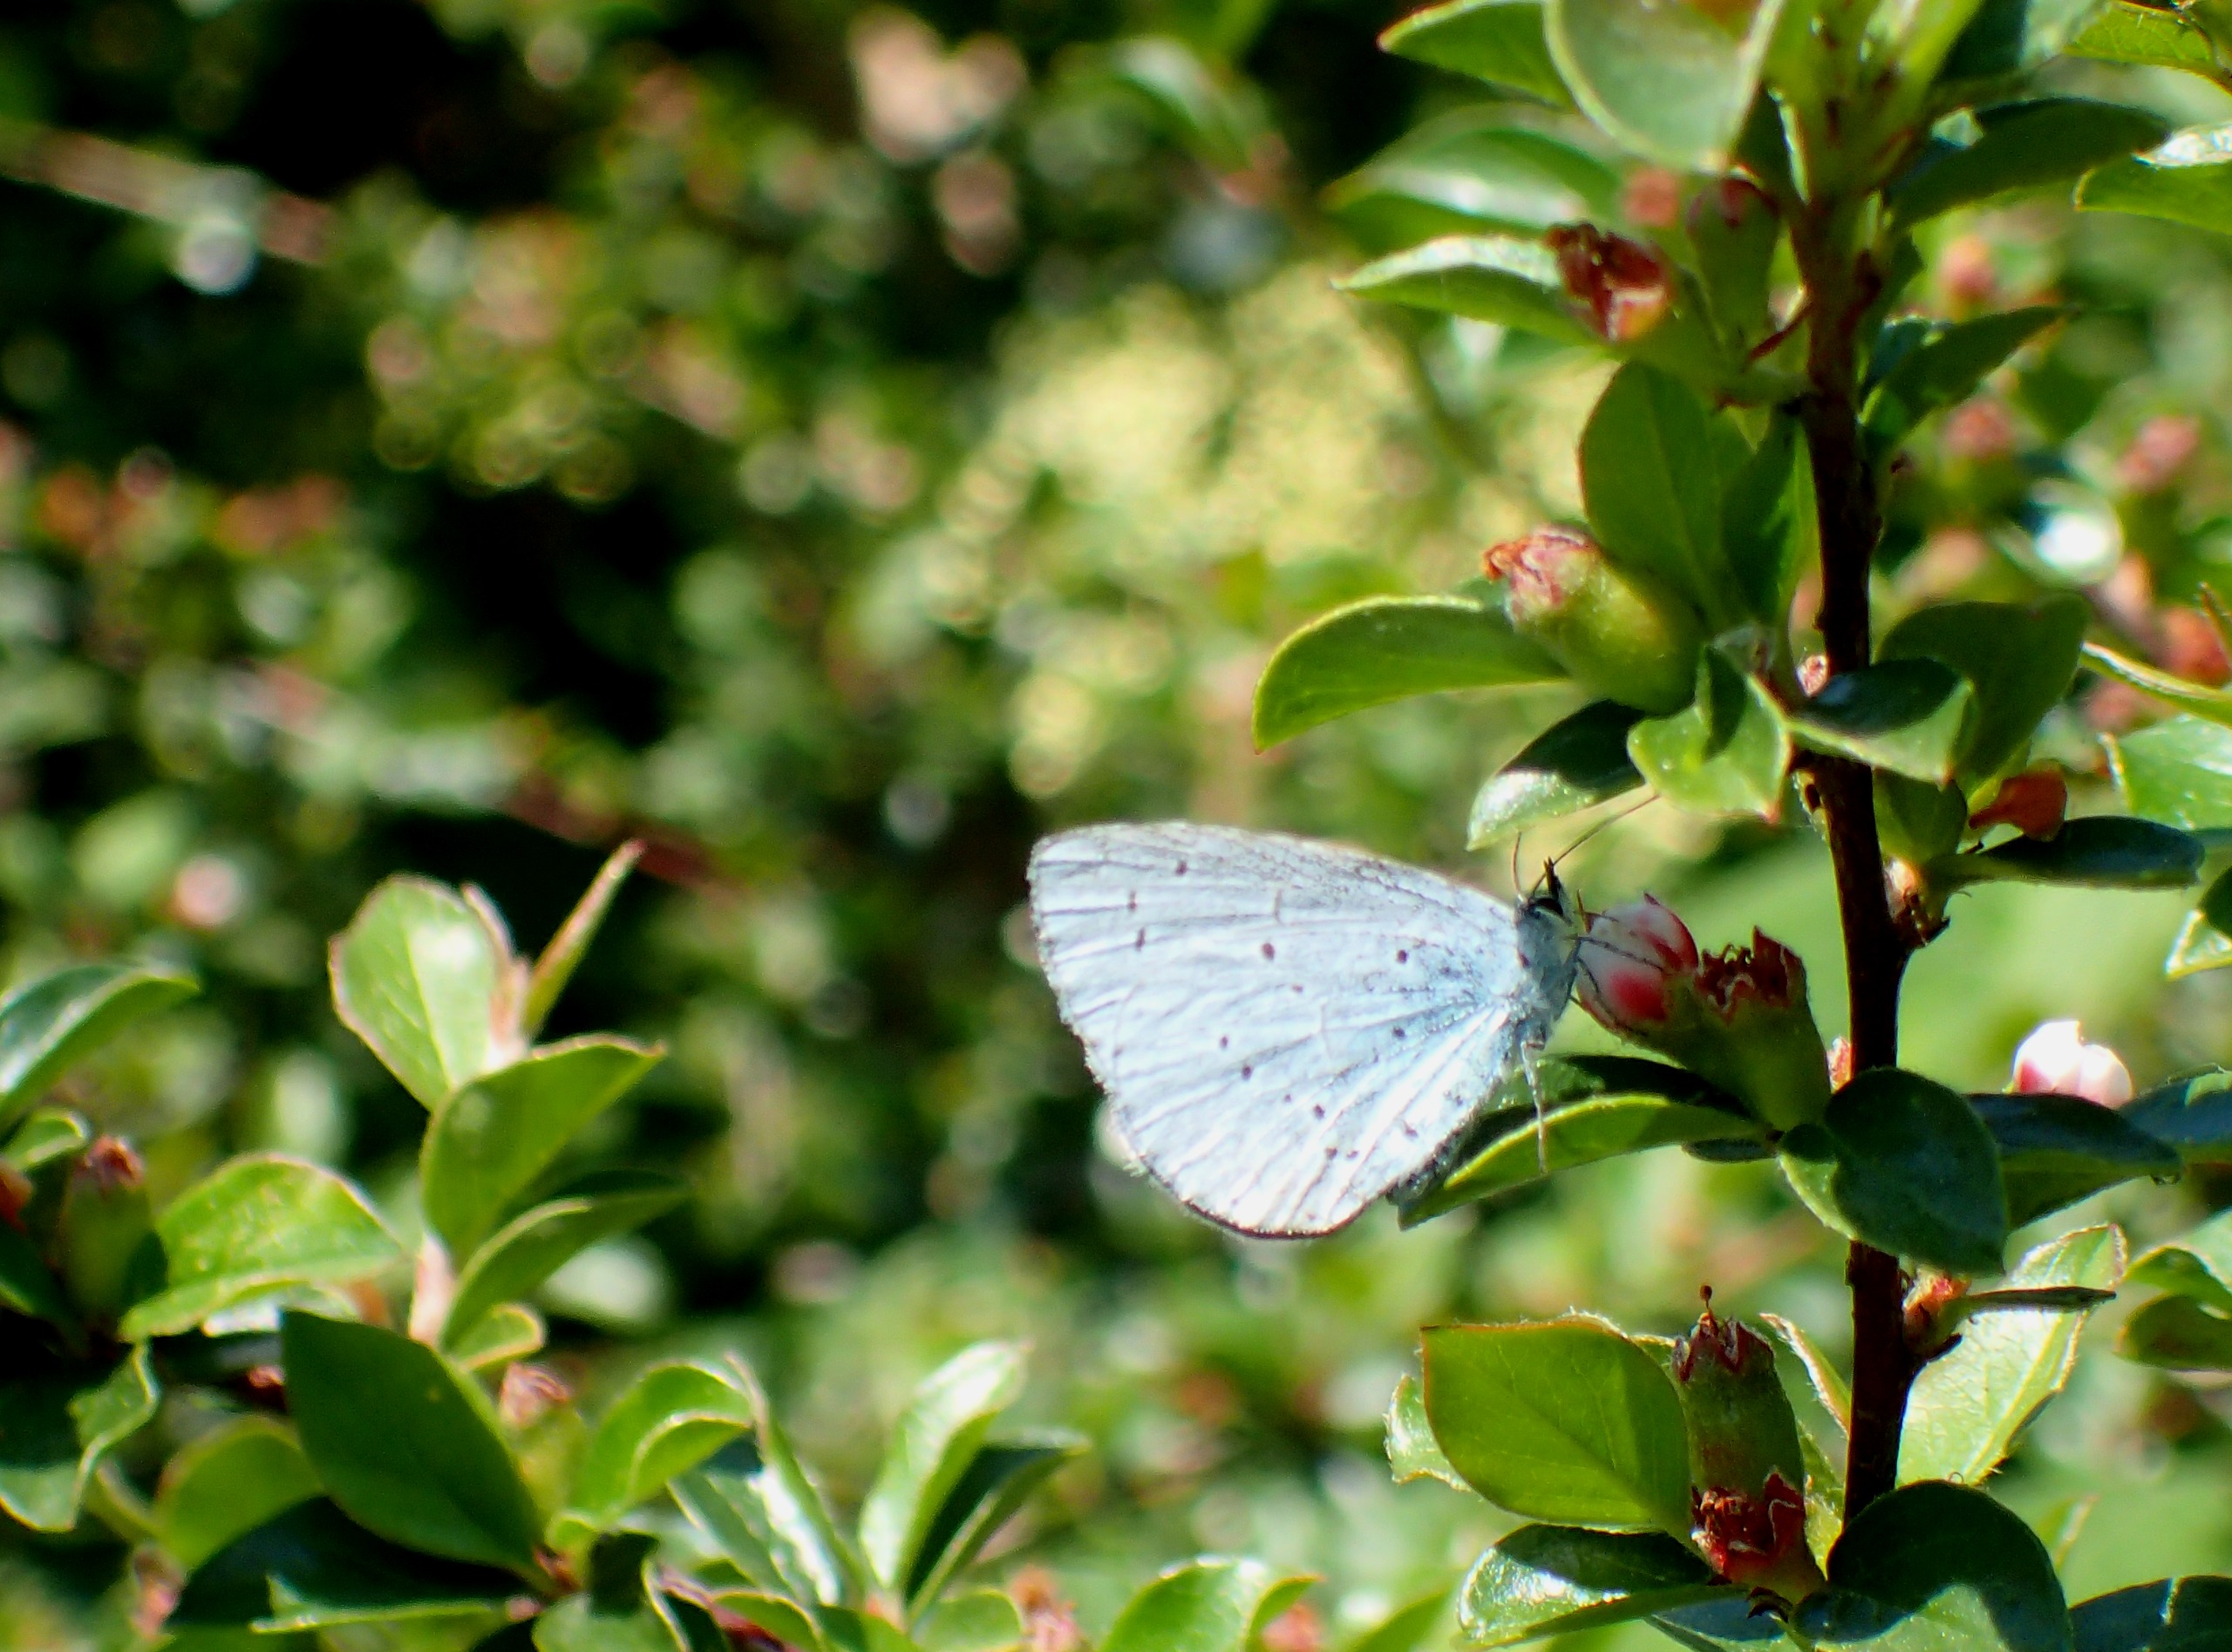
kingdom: Animalia
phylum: Arthropoda
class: Insecta
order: Lepidoptera
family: Lycaenidae
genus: Celastrina
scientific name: Celastrina argiolus
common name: Skovblåfugl
